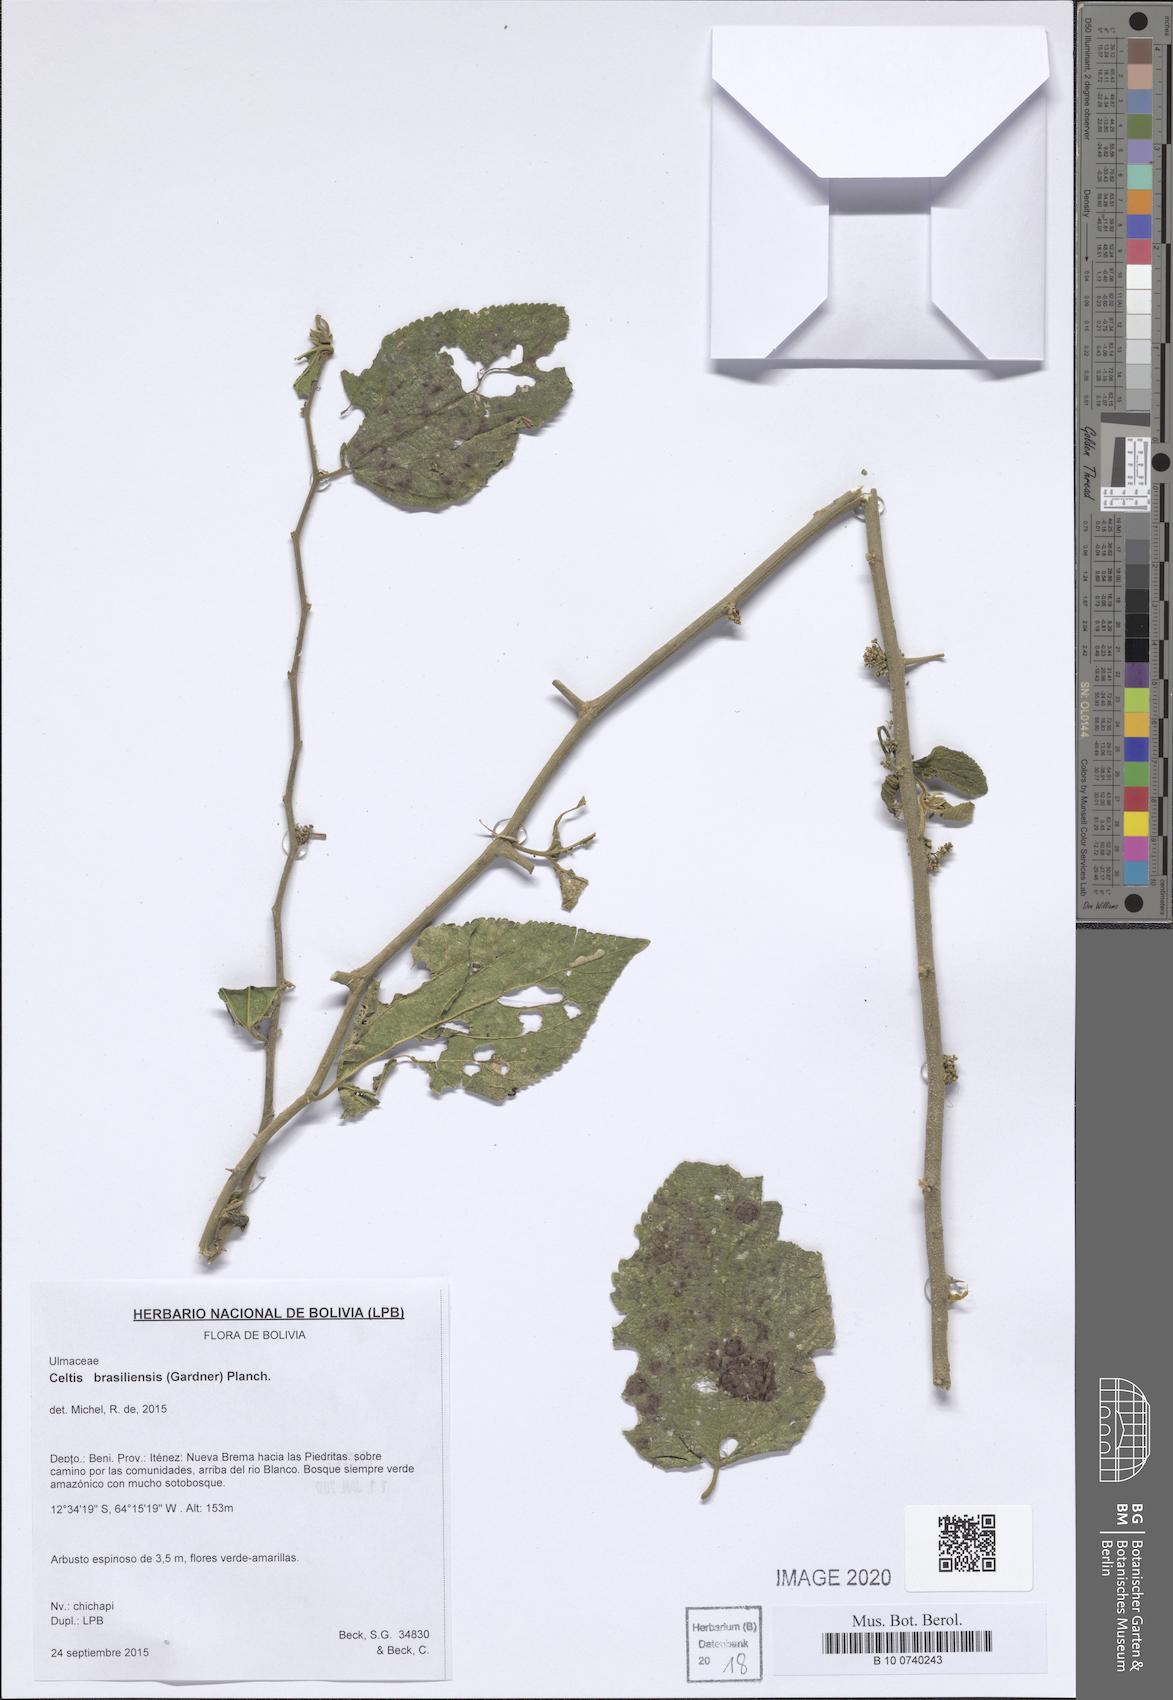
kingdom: Plantae
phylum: Tracheophyta
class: Magnoliopsida
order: Rosales
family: Cannabaceae
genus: Celtis
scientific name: Celtis brasiliensis
